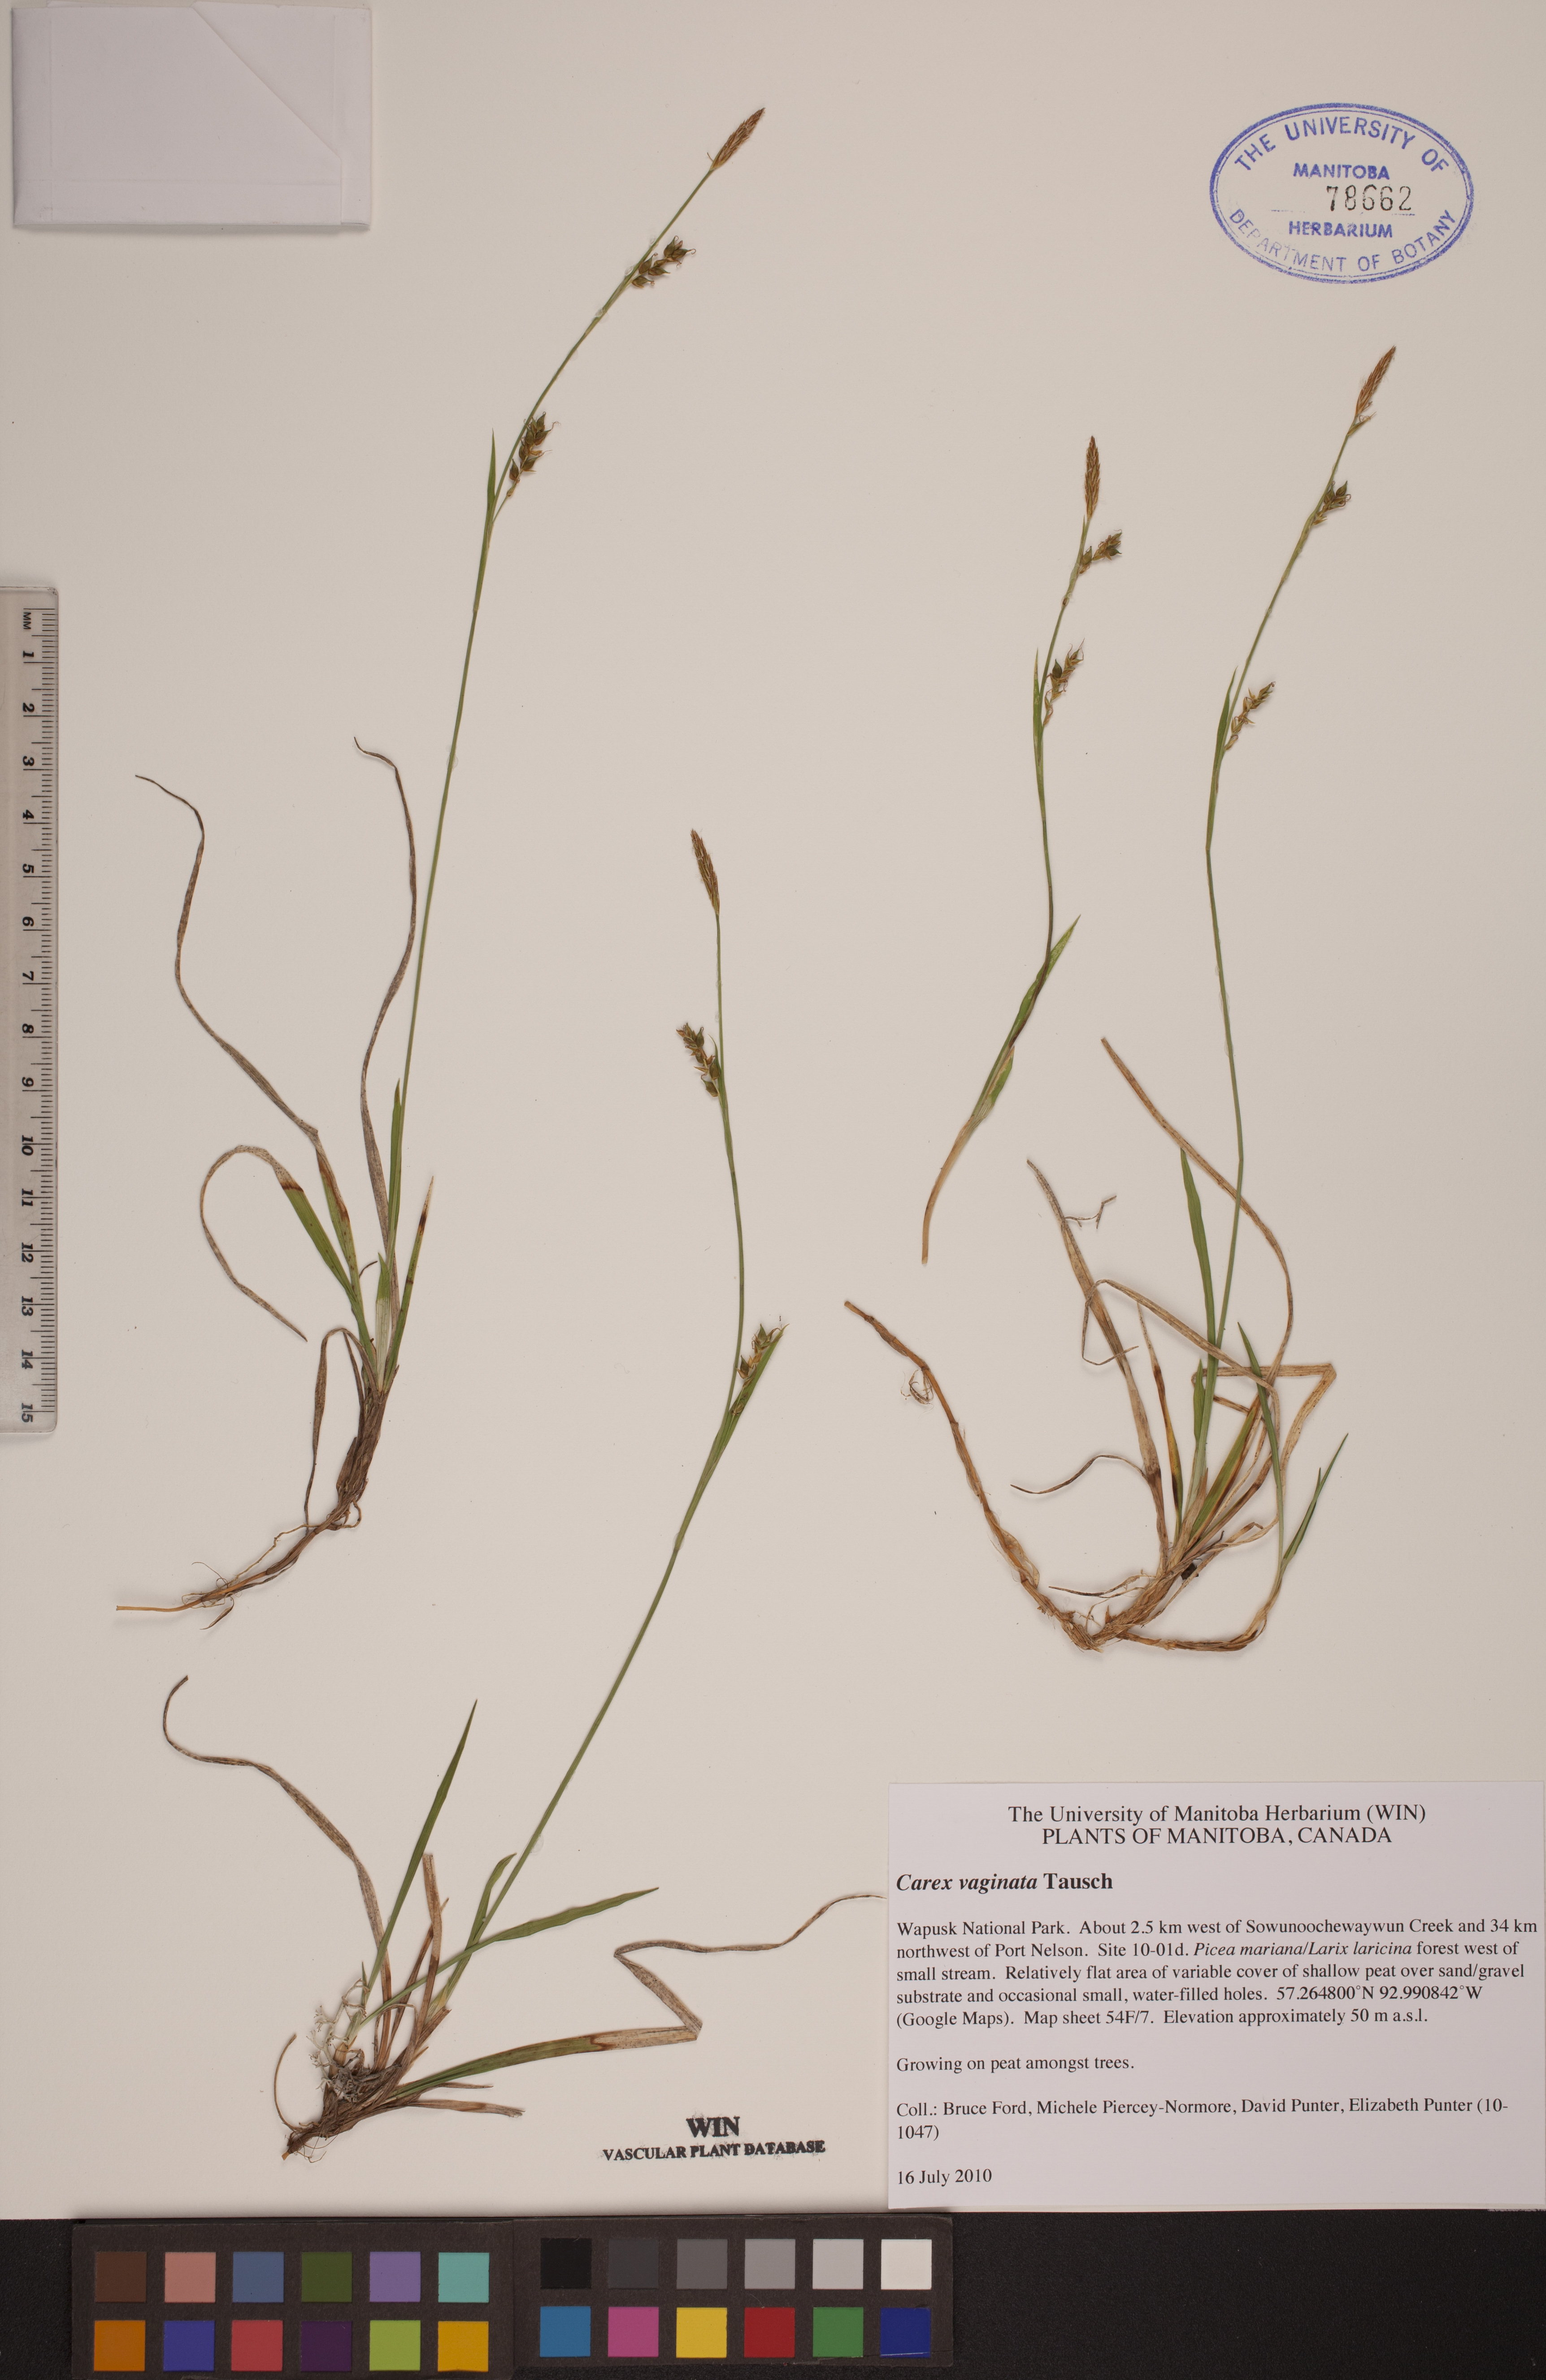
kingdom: Plantae
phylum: Tracheophyta
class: Liliopsida
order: Poales
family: Cyperaceae
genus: Carex
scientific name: Carex vaginata
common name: Sheathed sedge
